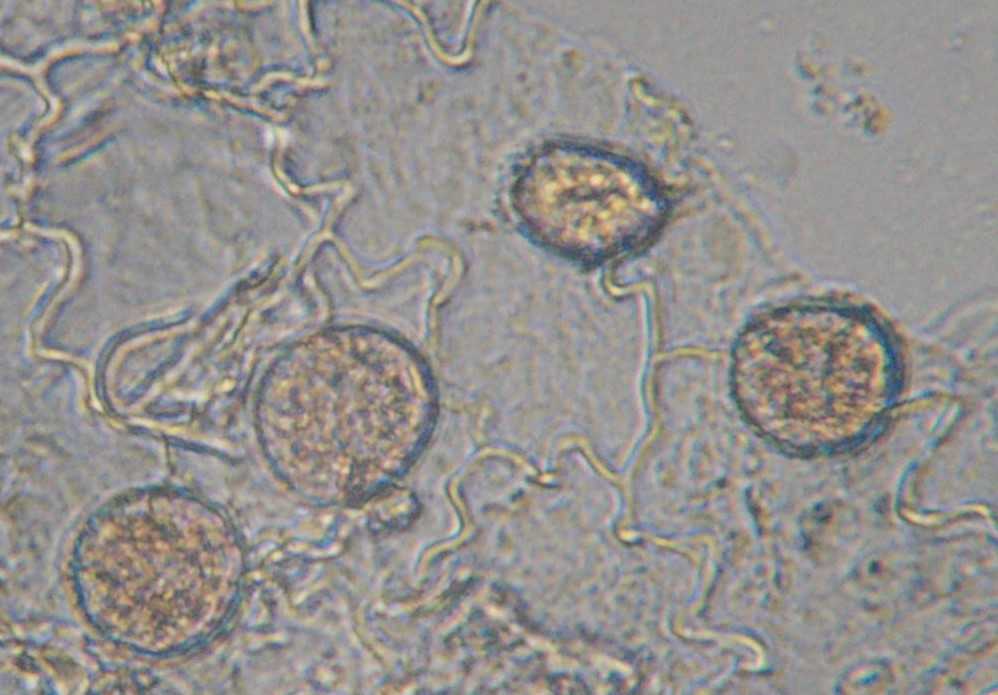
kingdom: Fungi
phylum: Basidiomycota
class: Pucciniomycetes
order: Pucciniales
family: Melampsoraceae
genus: Melampsora
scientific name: Melampsora euphorbiae
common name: vortemælk-skorperust
